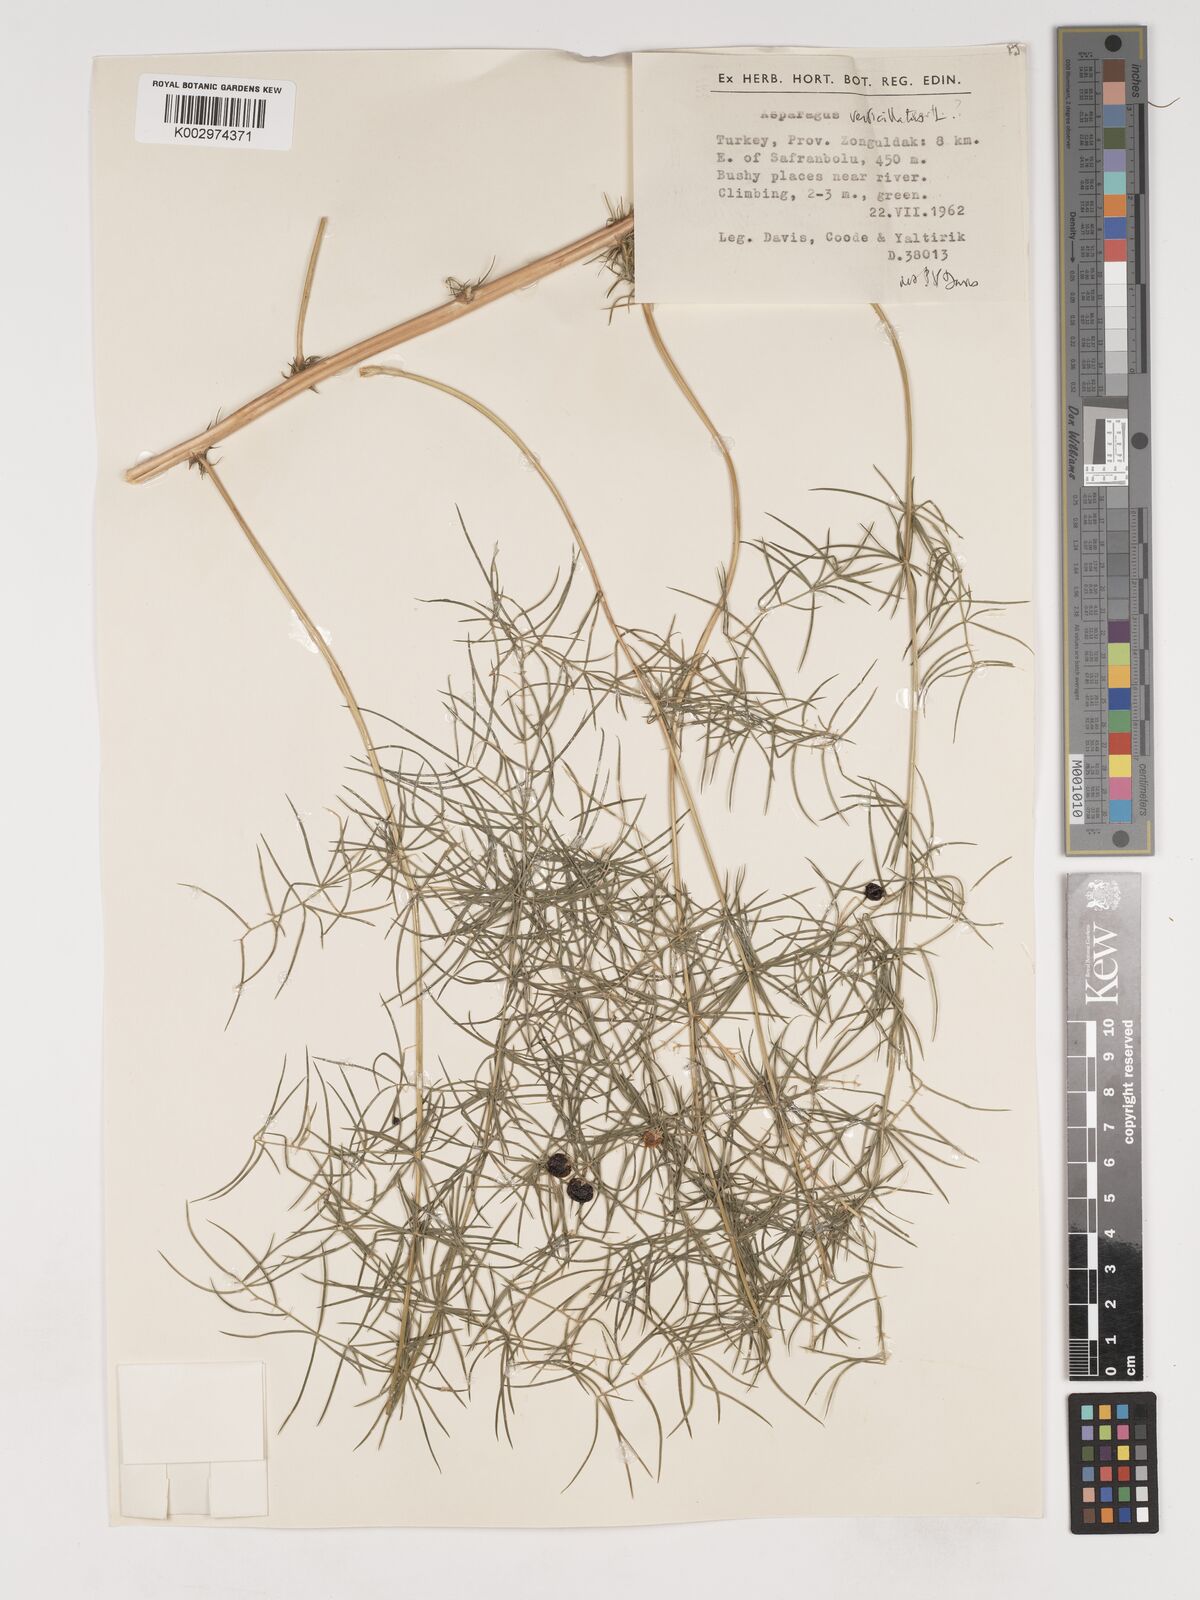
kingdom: Plantae
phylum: Tracheophyta
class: Liliopsida
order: Asparagales
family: Asparagaceae
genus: Asparagus
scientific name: Asparagus verticillatus
